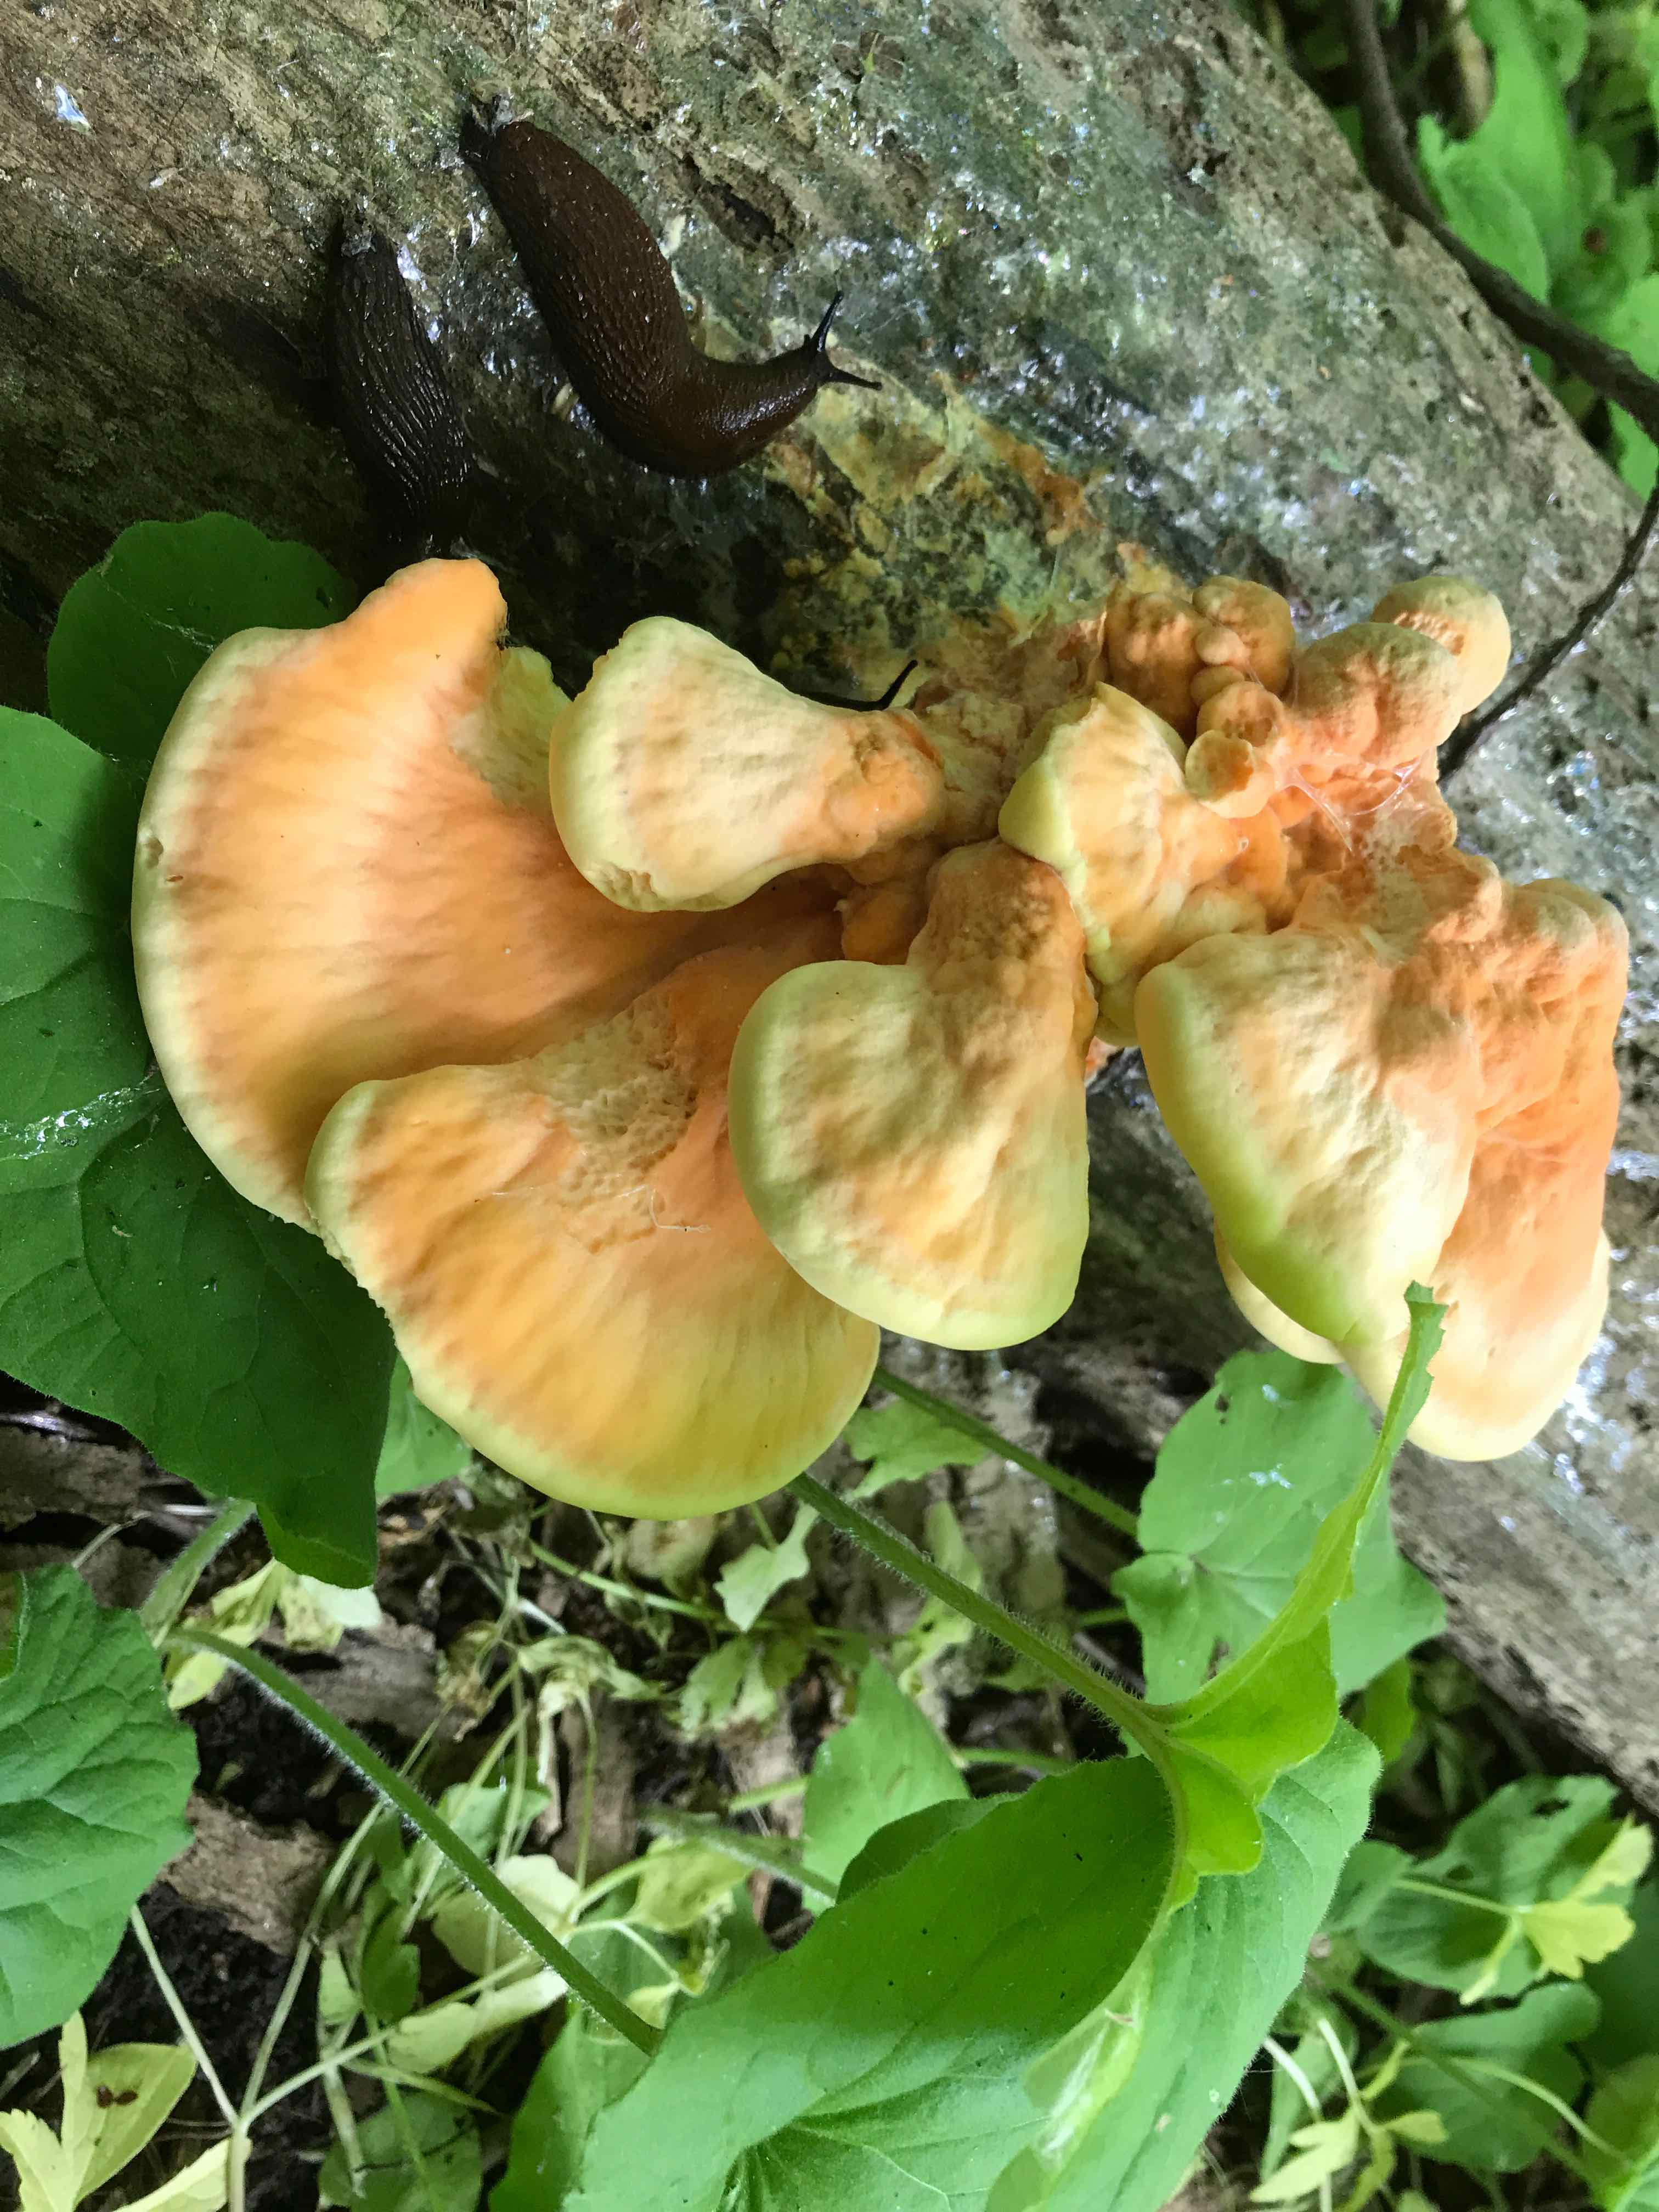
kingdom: Fungi
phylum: Basidiomycota
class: Agaricomycetes
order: Polyporales
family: Laetiporaceae
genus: Laetiporus
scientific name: Laetiporus sulphureus
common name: svovlporesvamp
